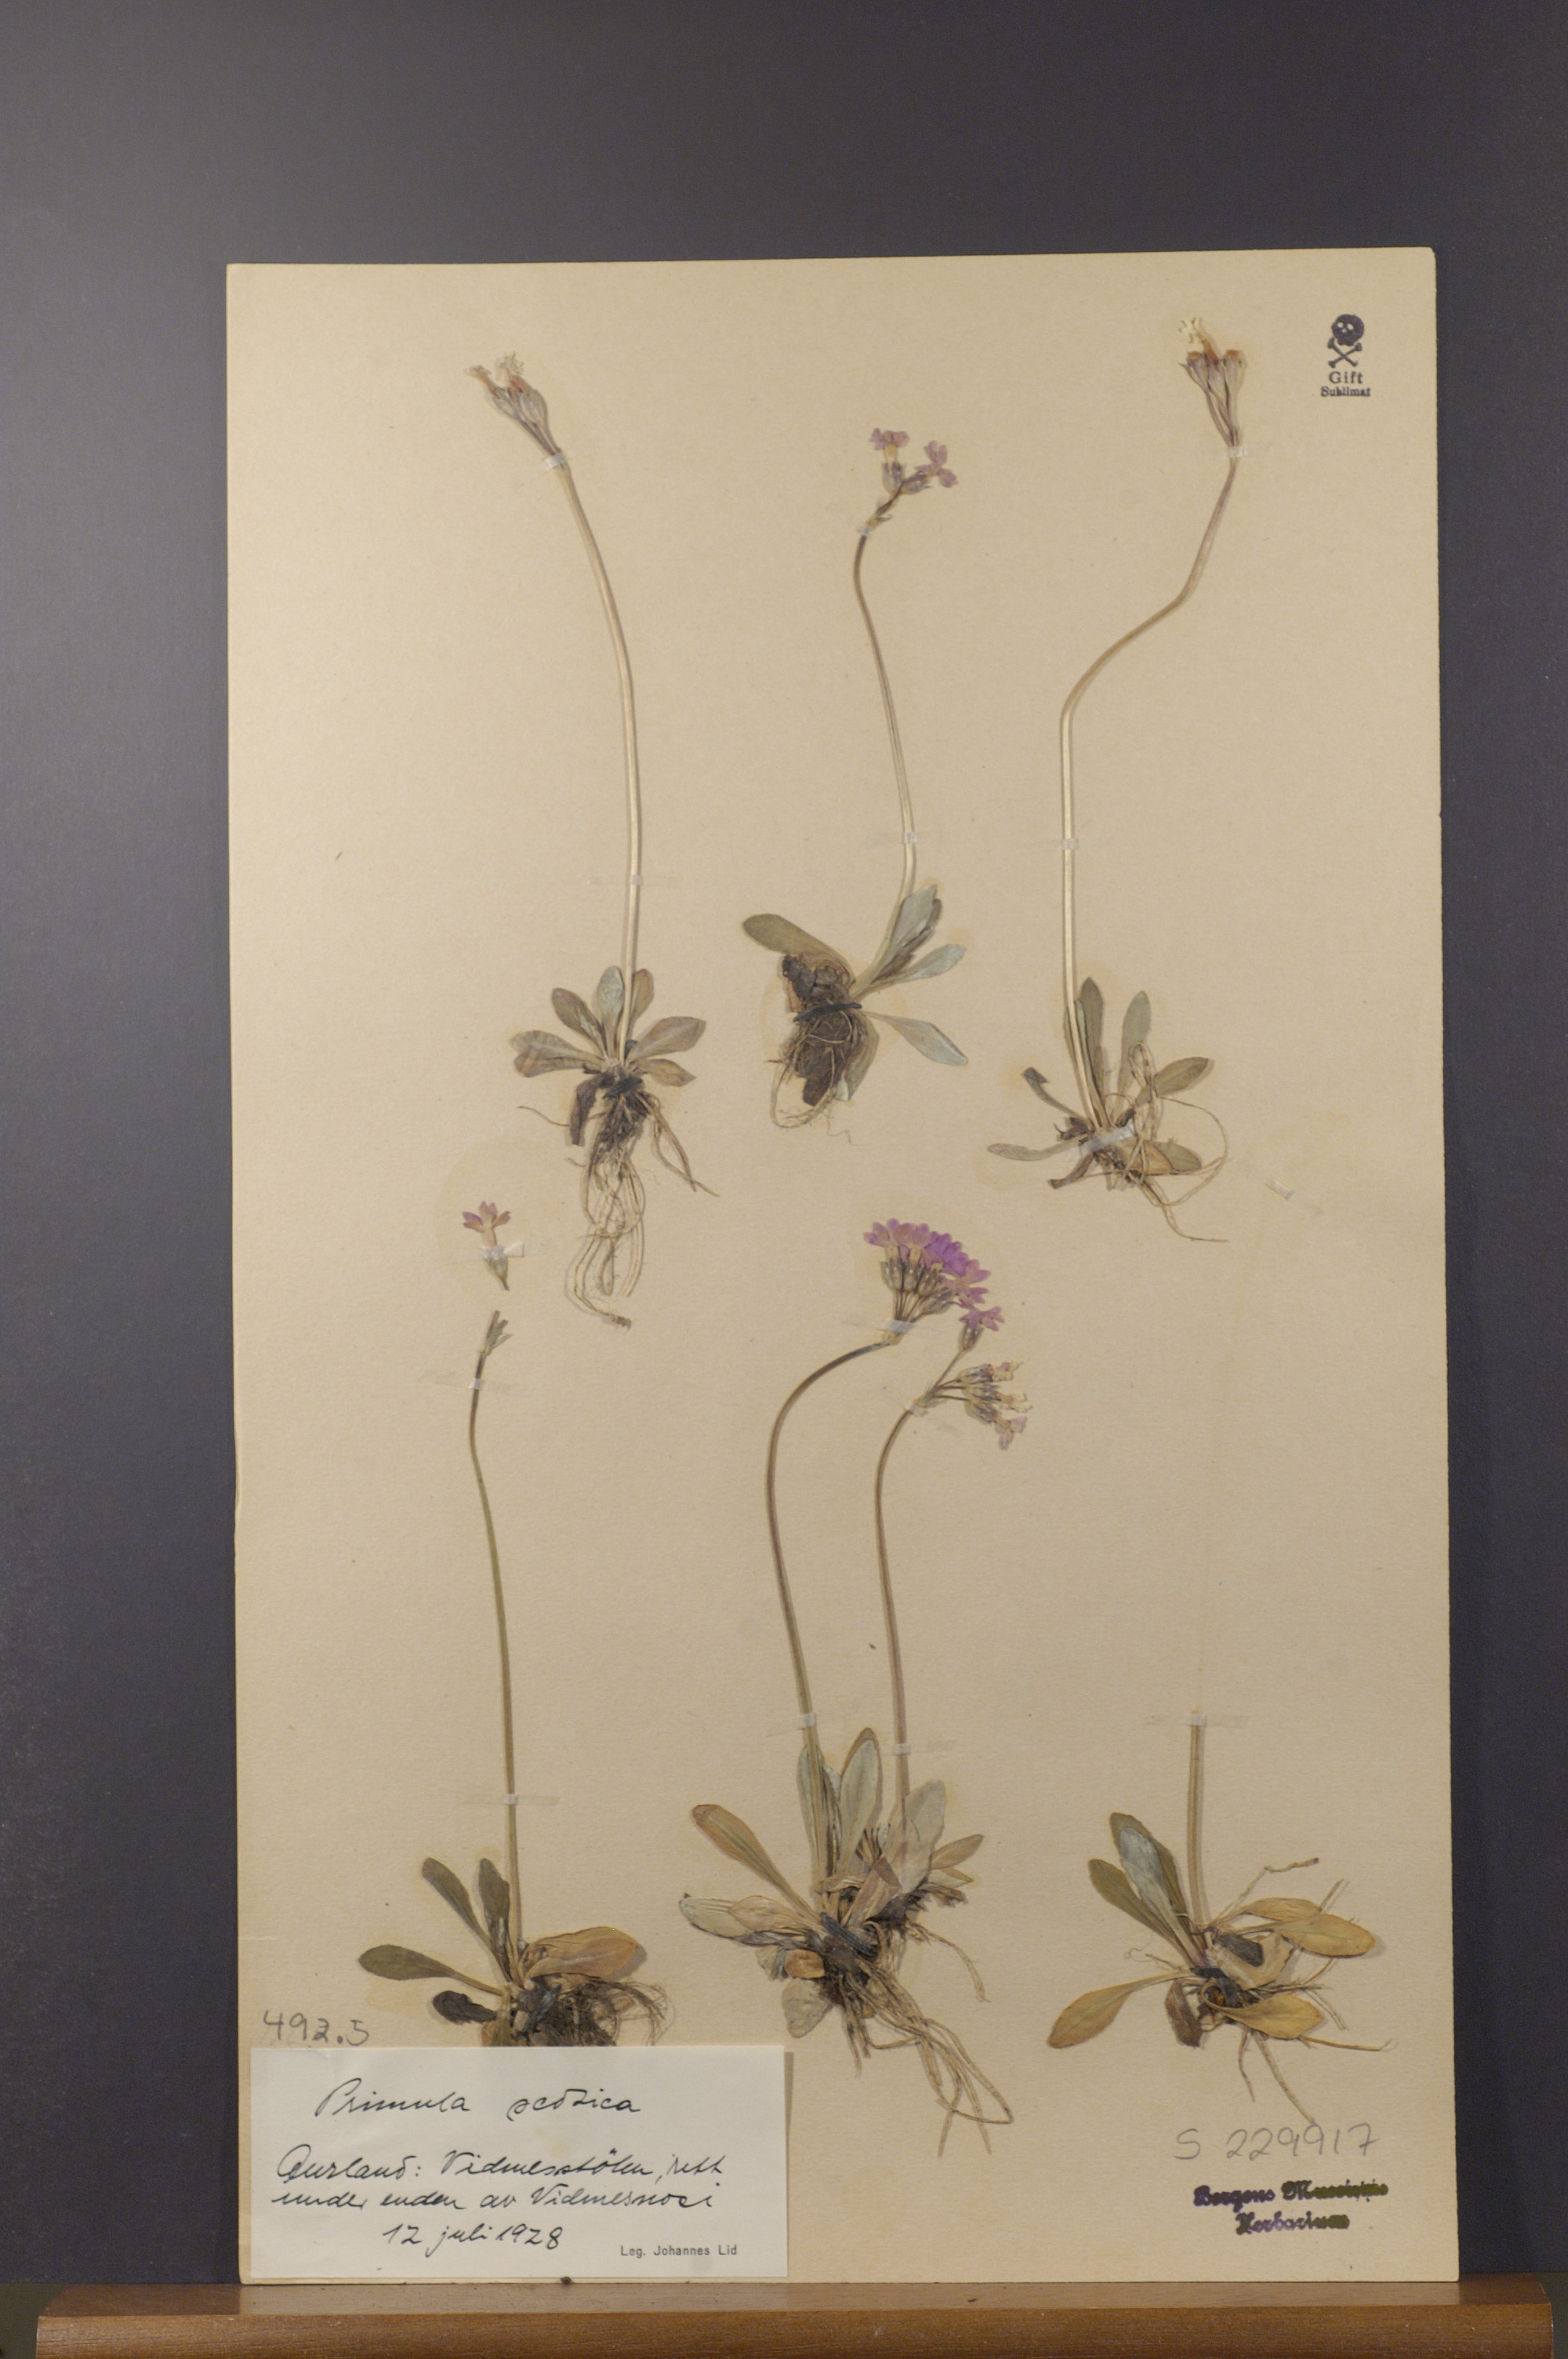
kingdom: Plantae
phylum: Tracheophyta
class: Magnoliopsida
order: Ericales
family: Primulaceae
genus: Primula
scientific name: Primula scotica
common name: Scottish primrose
